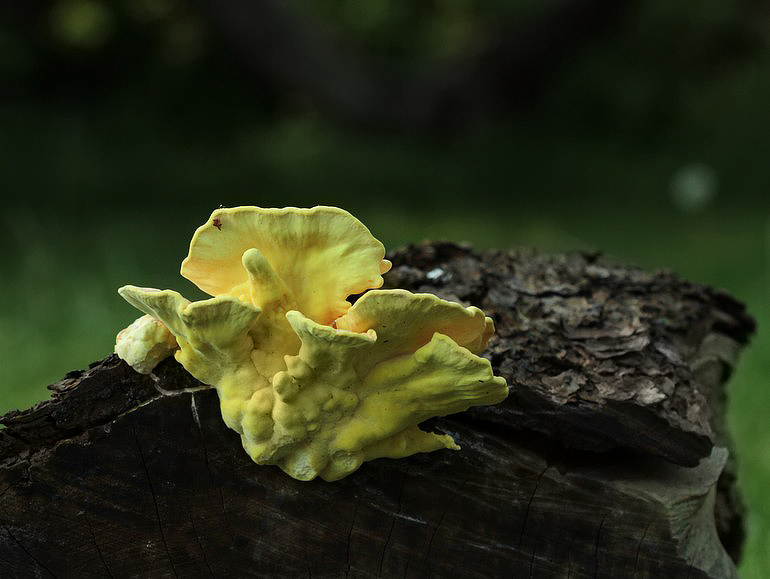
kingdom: Fungi
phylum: Basidiomycota
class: Agaricomycetes
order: Polyporales
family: Laetiporaceae
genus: Laetiporus
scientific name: Laetiporus sulphureus
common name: svovlporesvamp
